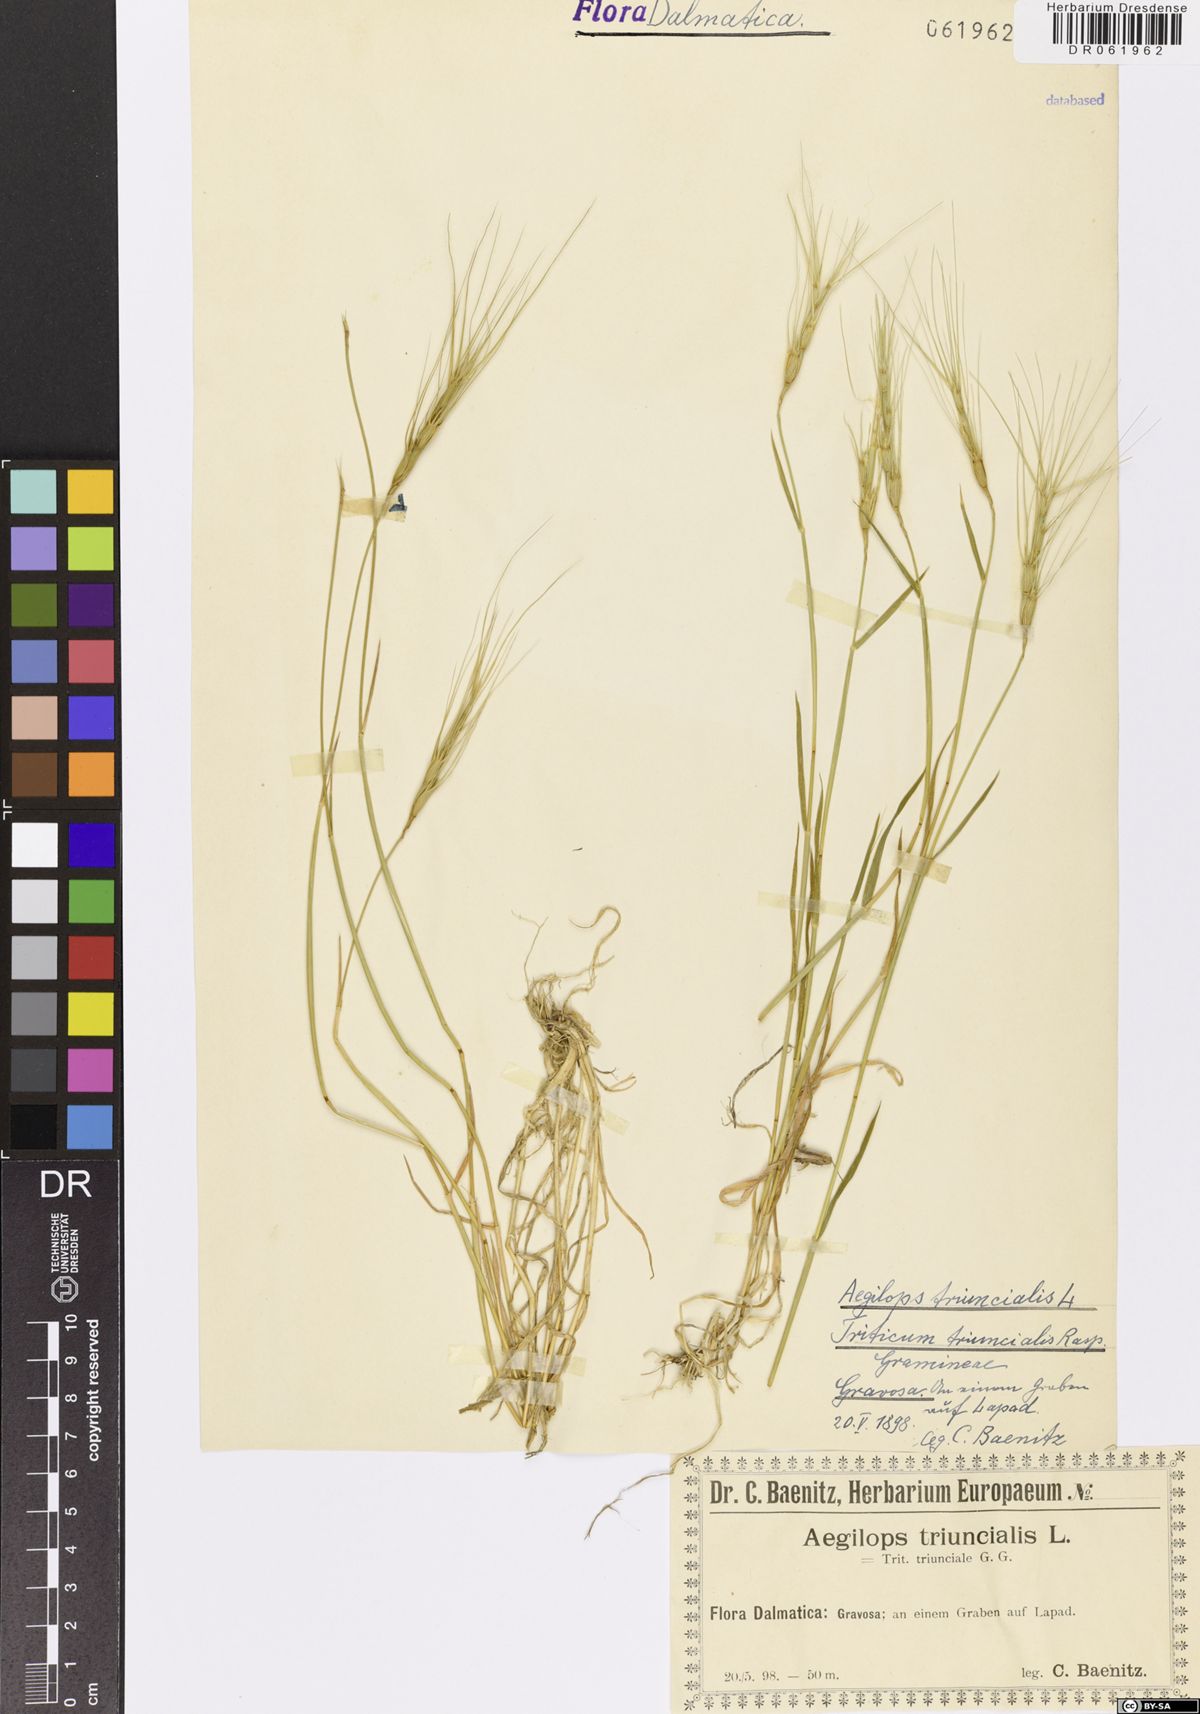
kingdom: Plantae
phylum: Tracheophyta
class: Liliopsida
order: Poales
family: Poaceae
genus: Aegilops
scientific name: Aegilops triuncialis
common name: Barb goat grass
